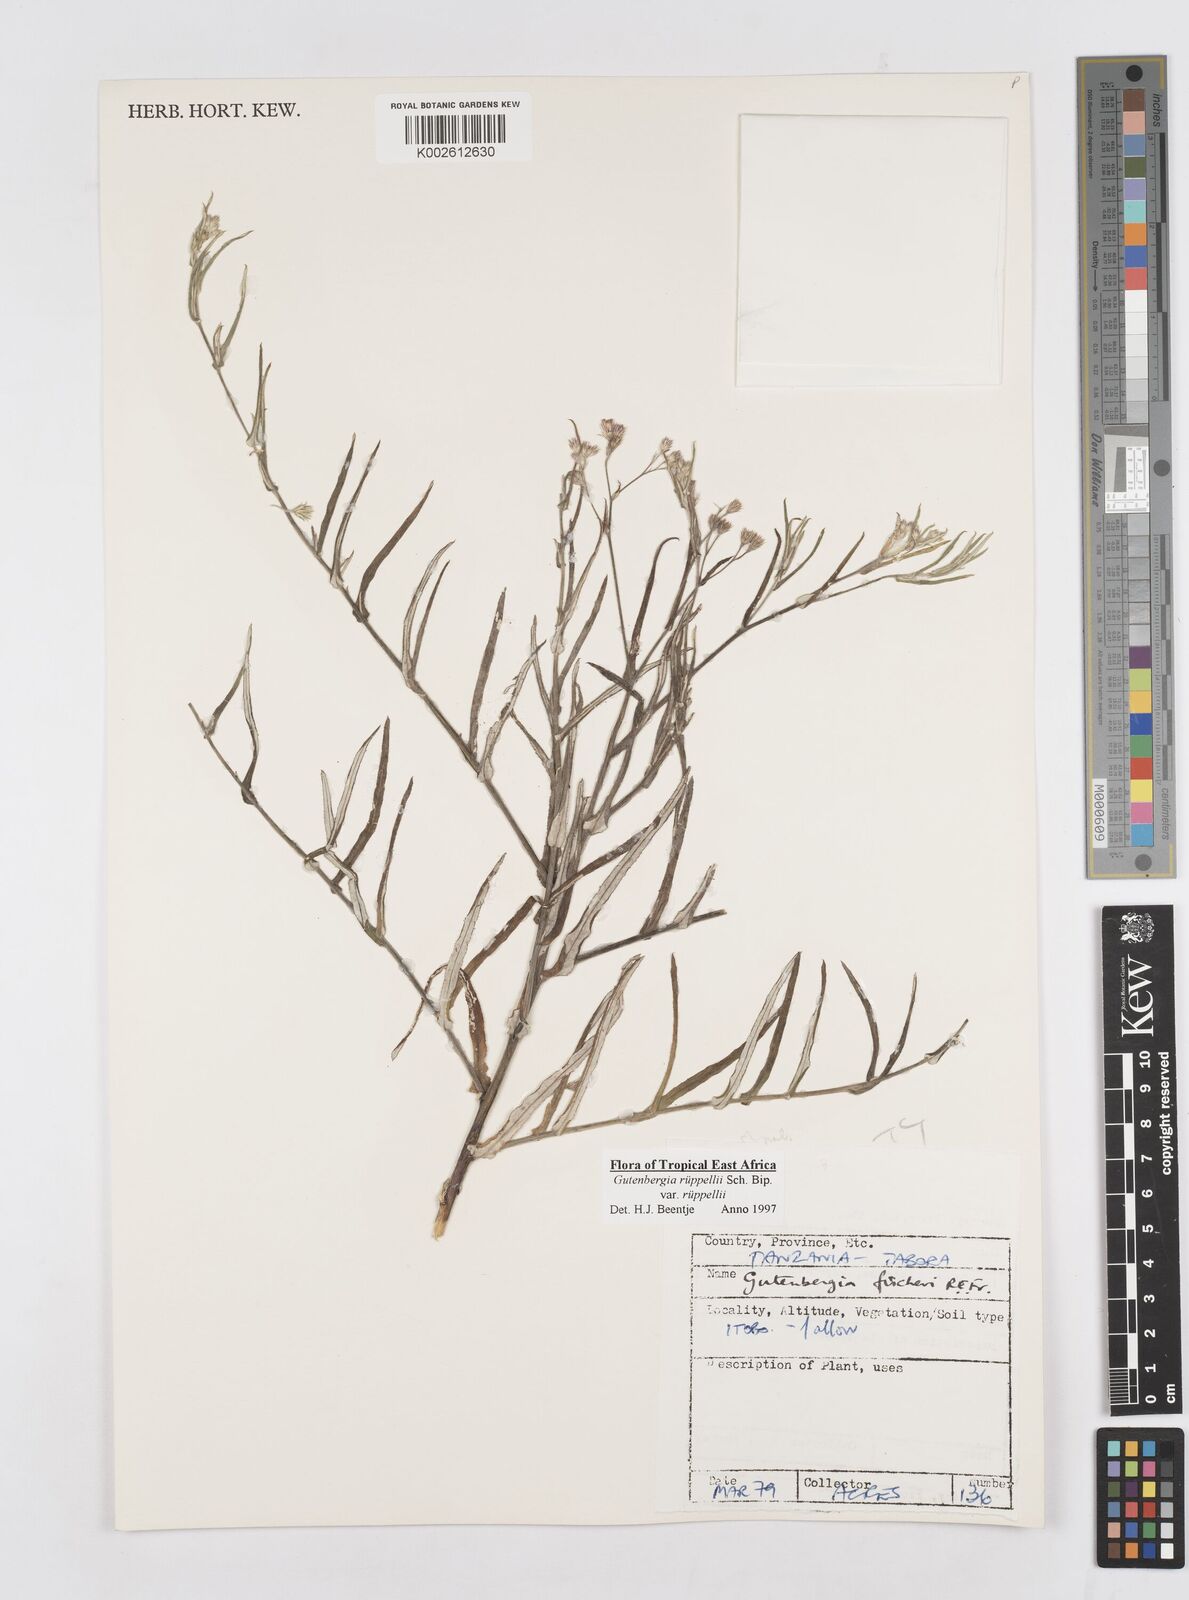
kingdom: Plantae
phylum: Tracheophyta
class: Magnoliopsida
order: Asterales
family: Asteraceae
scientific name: Asteraceae
